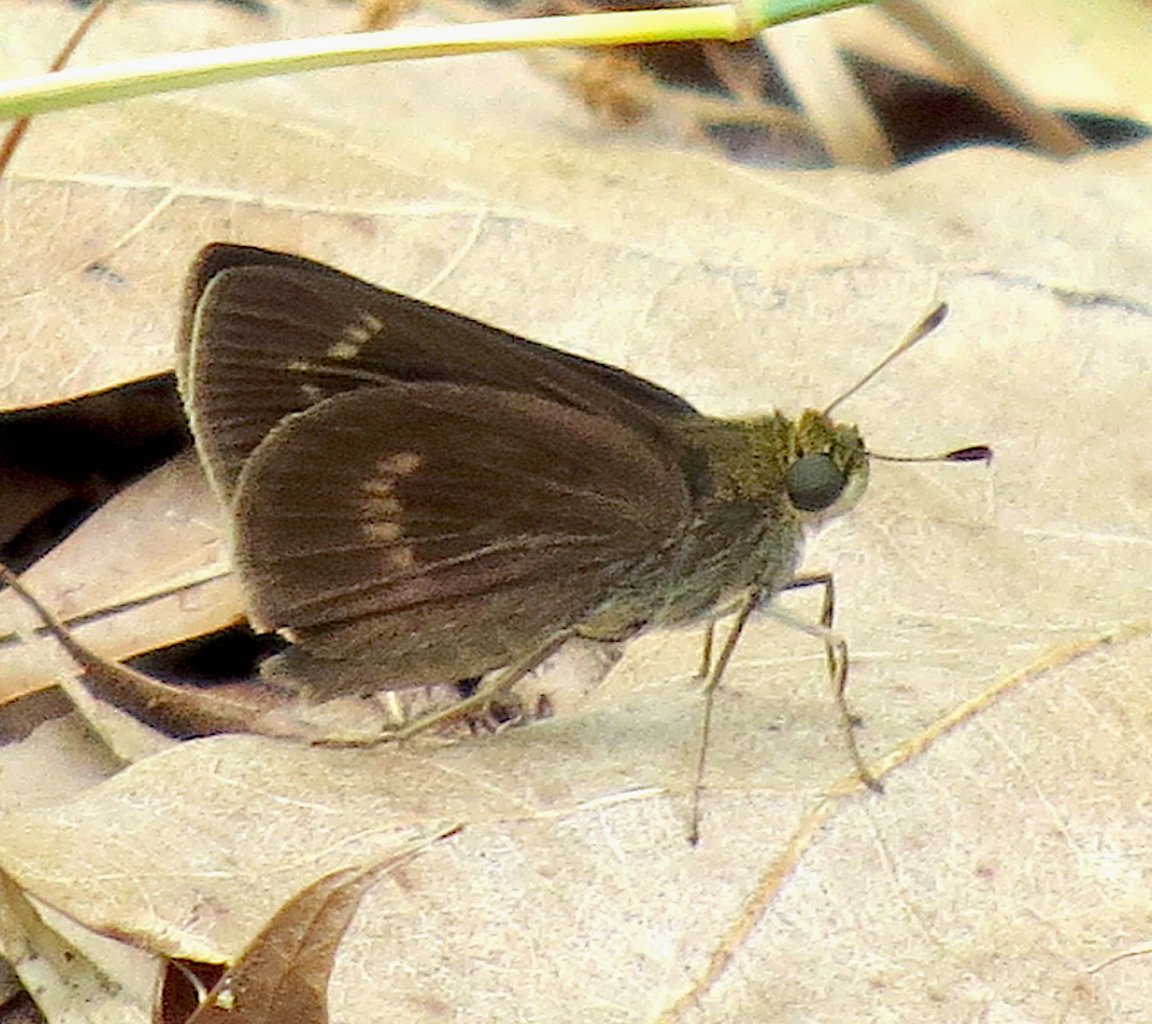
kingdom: Animalia
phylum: Arthropoda
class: Insecta
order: Lepidoptera
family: Hesperiidae
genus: Polites
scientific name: Polites
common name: Crossline Skipper
